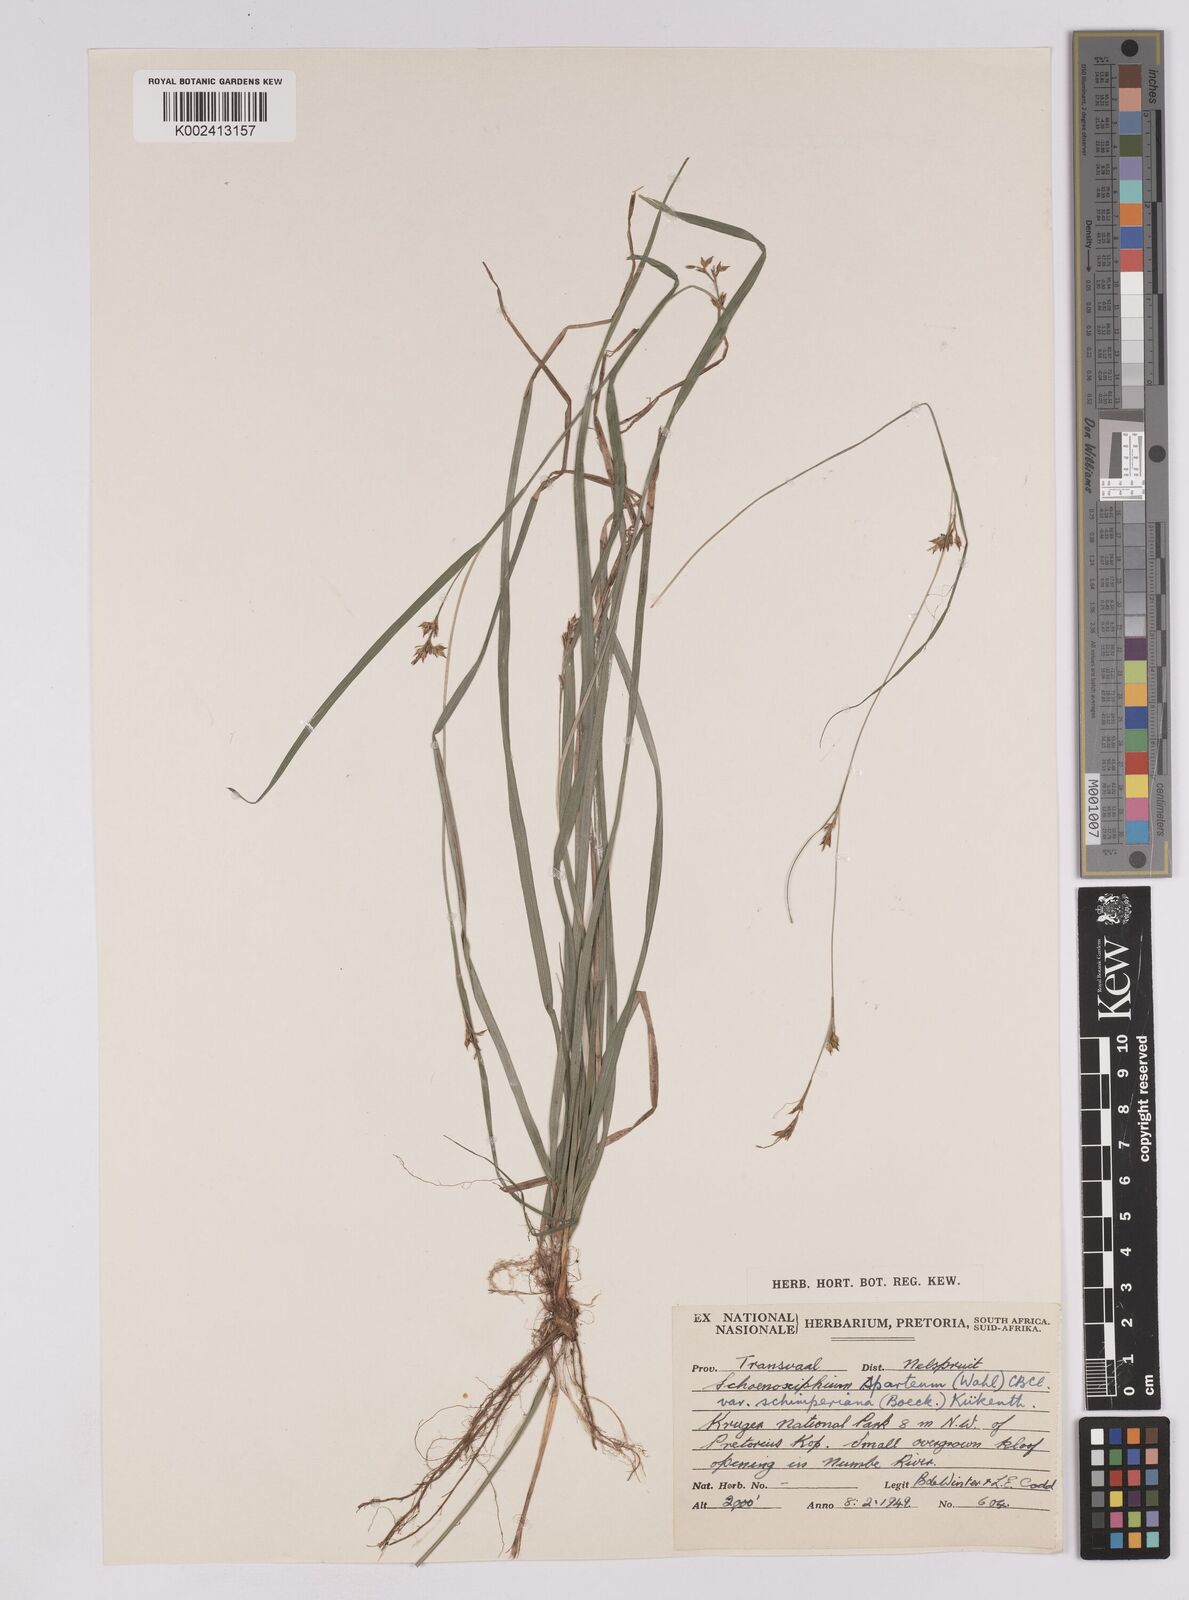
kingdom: Plantae
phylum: Tracheophyta
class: Liliopsida
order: Poales
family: Cyperaceae
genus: Carex
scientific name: Carex spartea
